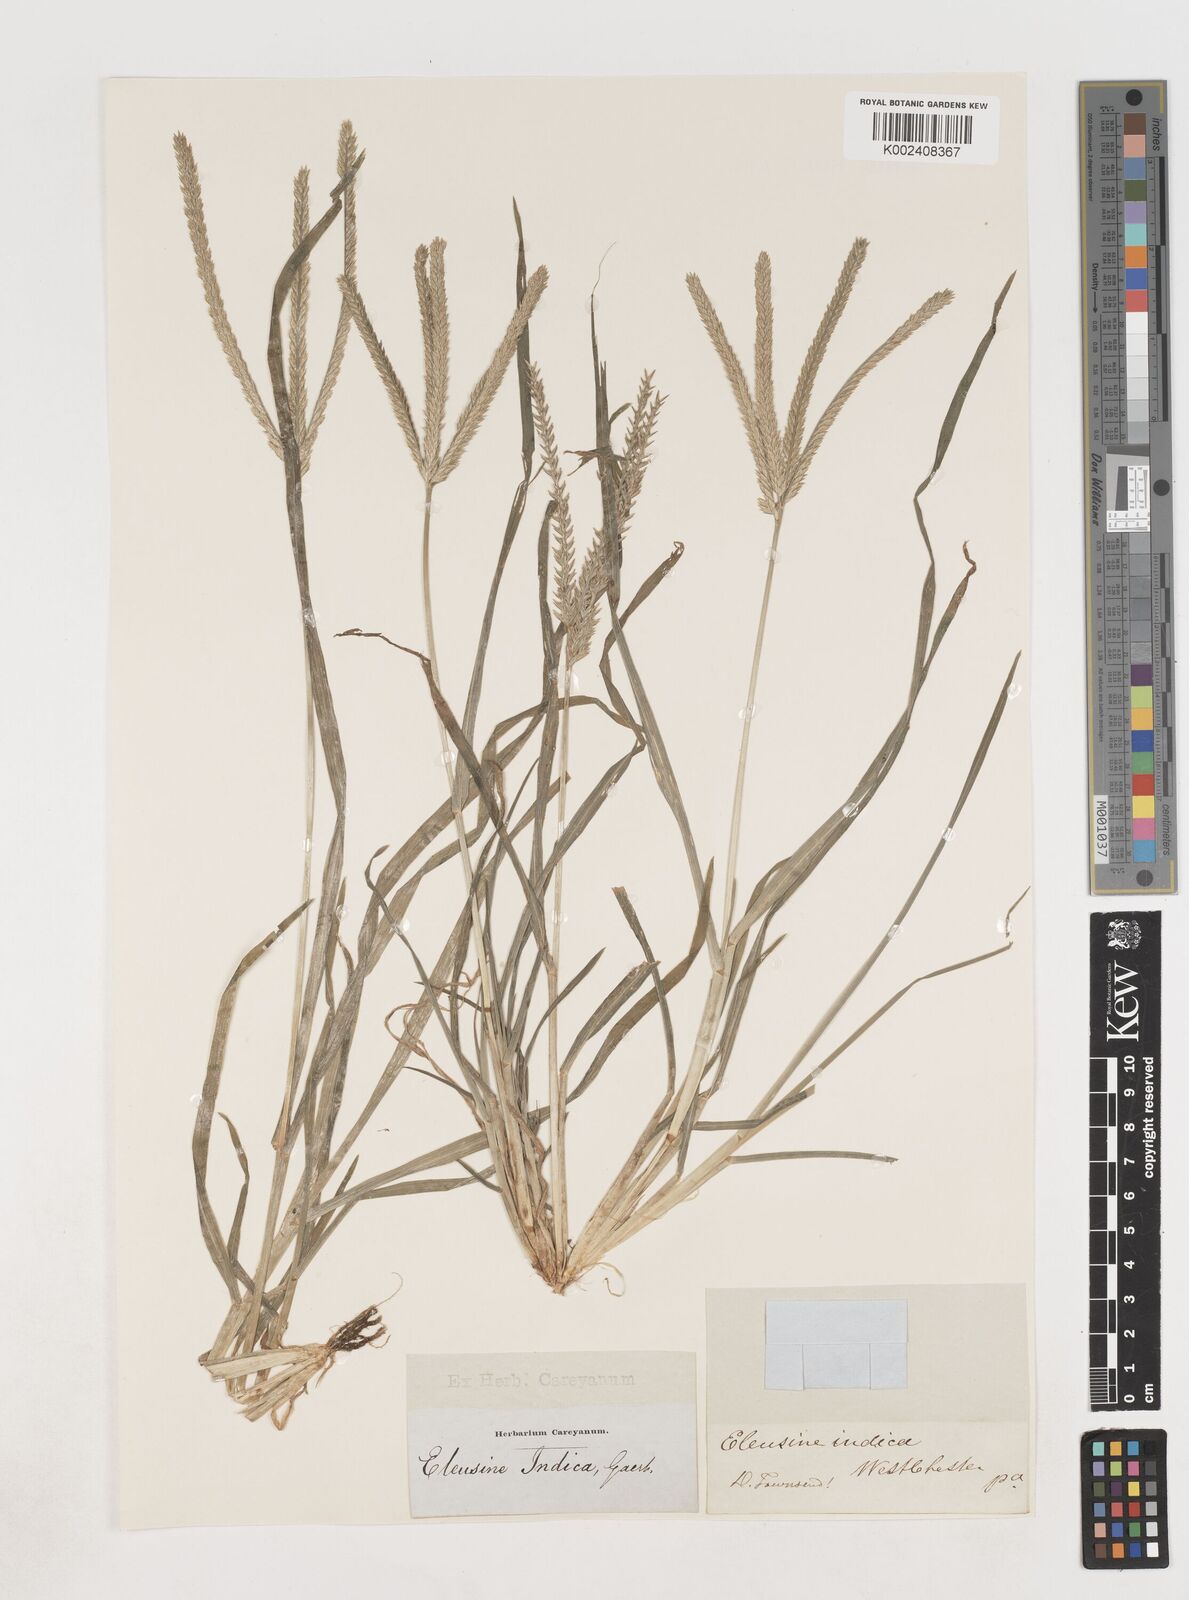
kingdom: Plantae
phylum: Tracheophyta
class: Liliopsida
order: Poales
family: Poaceae
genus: Eleusine
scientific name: Eleusine indica
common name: Yard-grass
